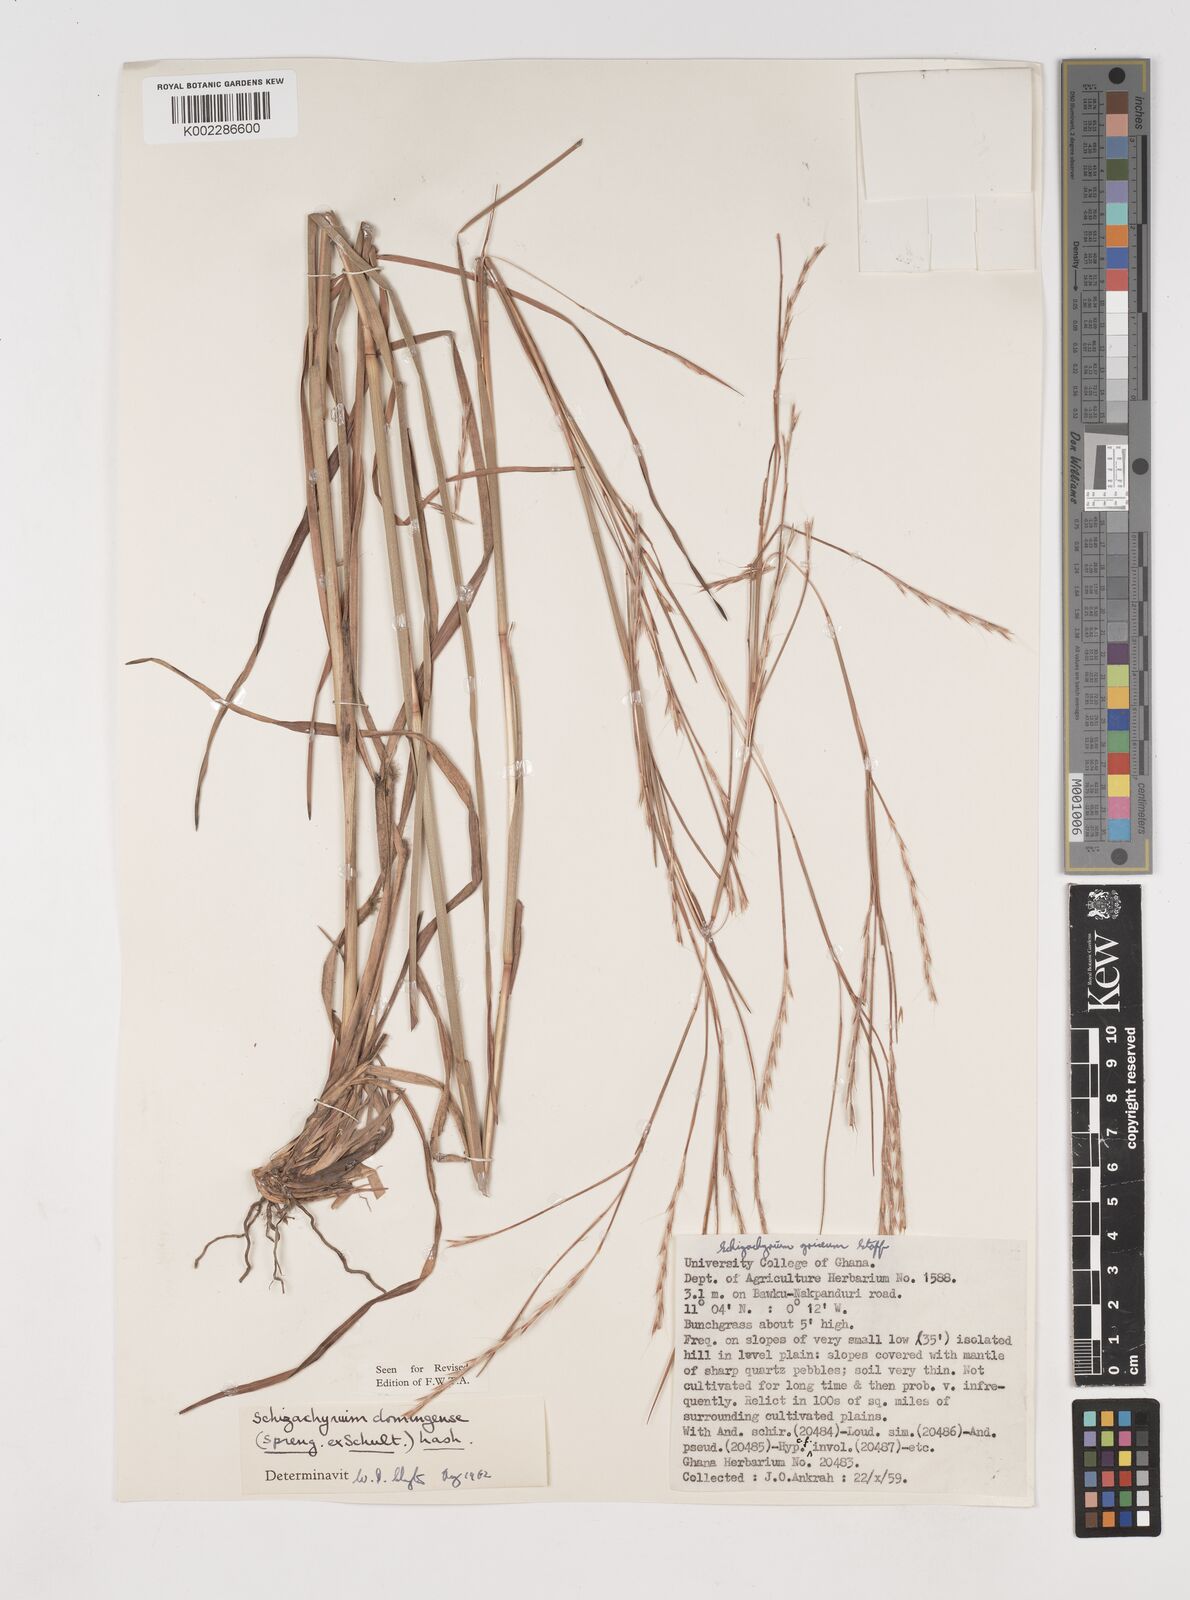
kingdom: Plantae
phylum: Tracheophyta
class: Liliopsida
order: Poales
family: Poaceae
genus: Schizachyrium
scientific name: Schizachyrium sanguineum
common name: Crimson bluestem
